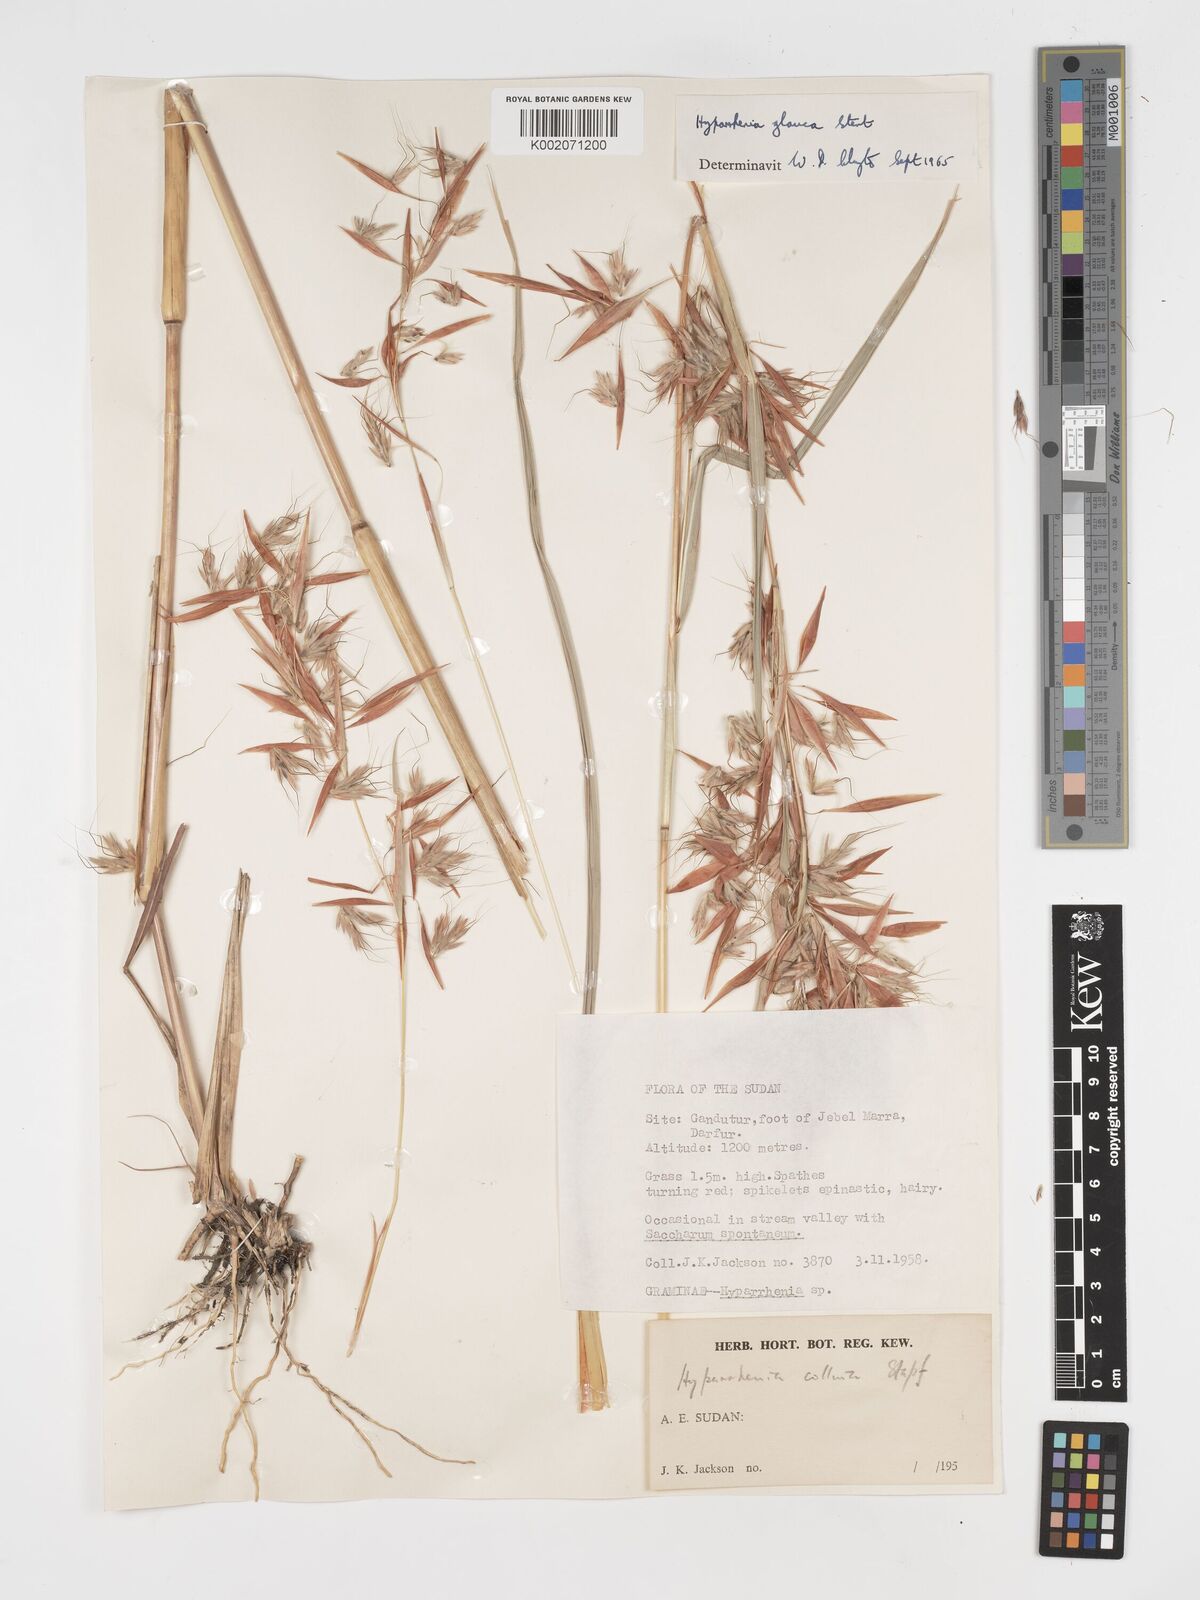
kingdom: Plantae
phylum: Tracheophyta
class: Liliopsida
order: Poales
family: Poaceae
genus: Hyparrhenia
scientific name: Hyparrhenia tamba
